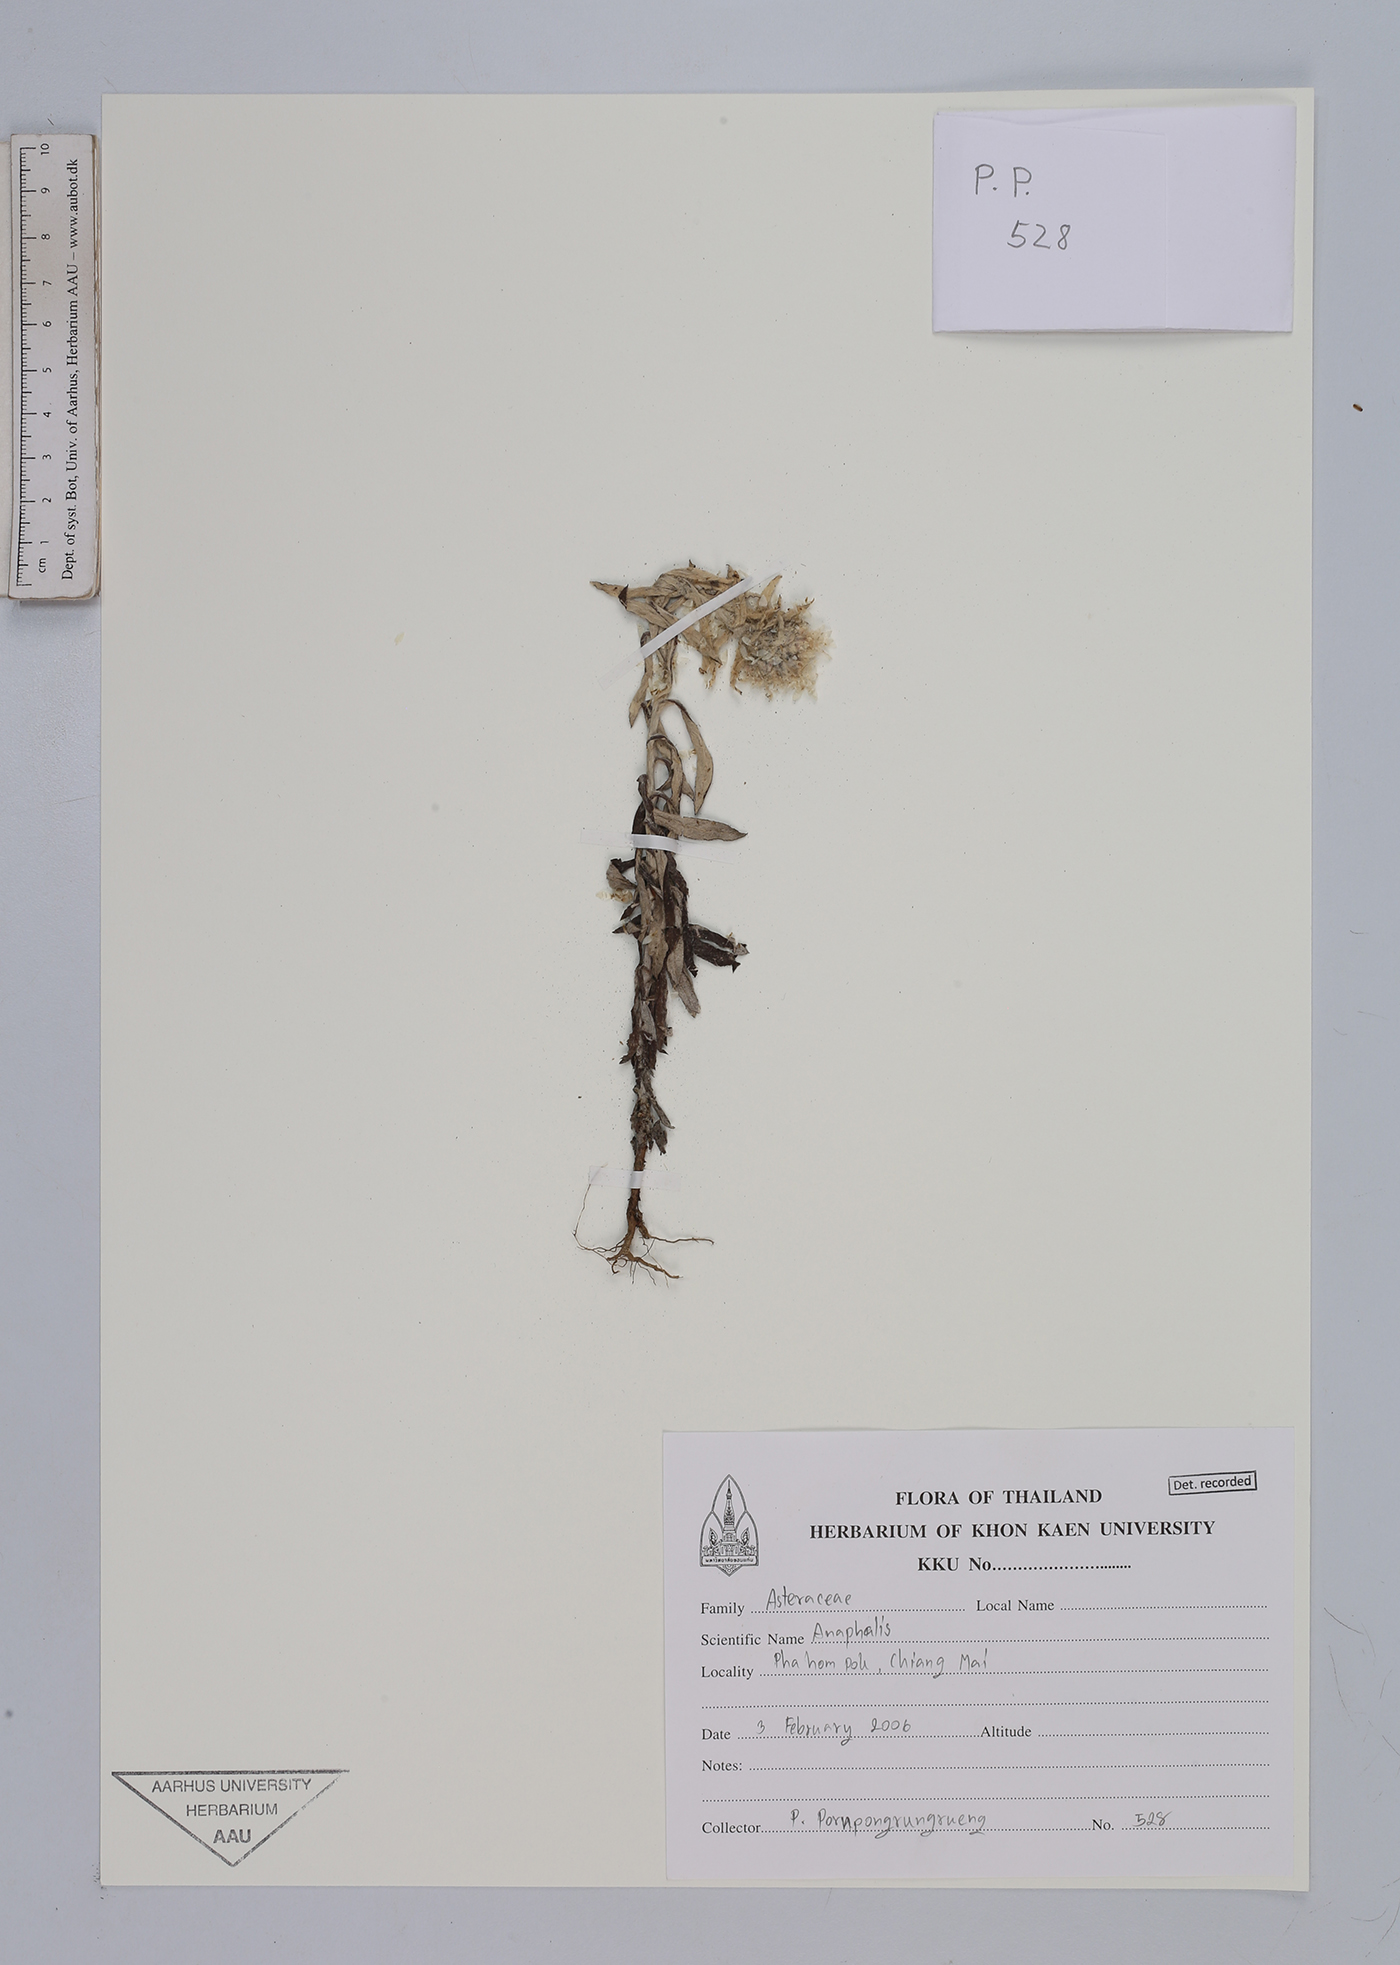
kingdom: Plantae
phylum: Tracheophyta
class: Magnoliopsida
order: Asterales
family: Asteraceae
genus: Anaphalis
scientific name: Anaphalis
